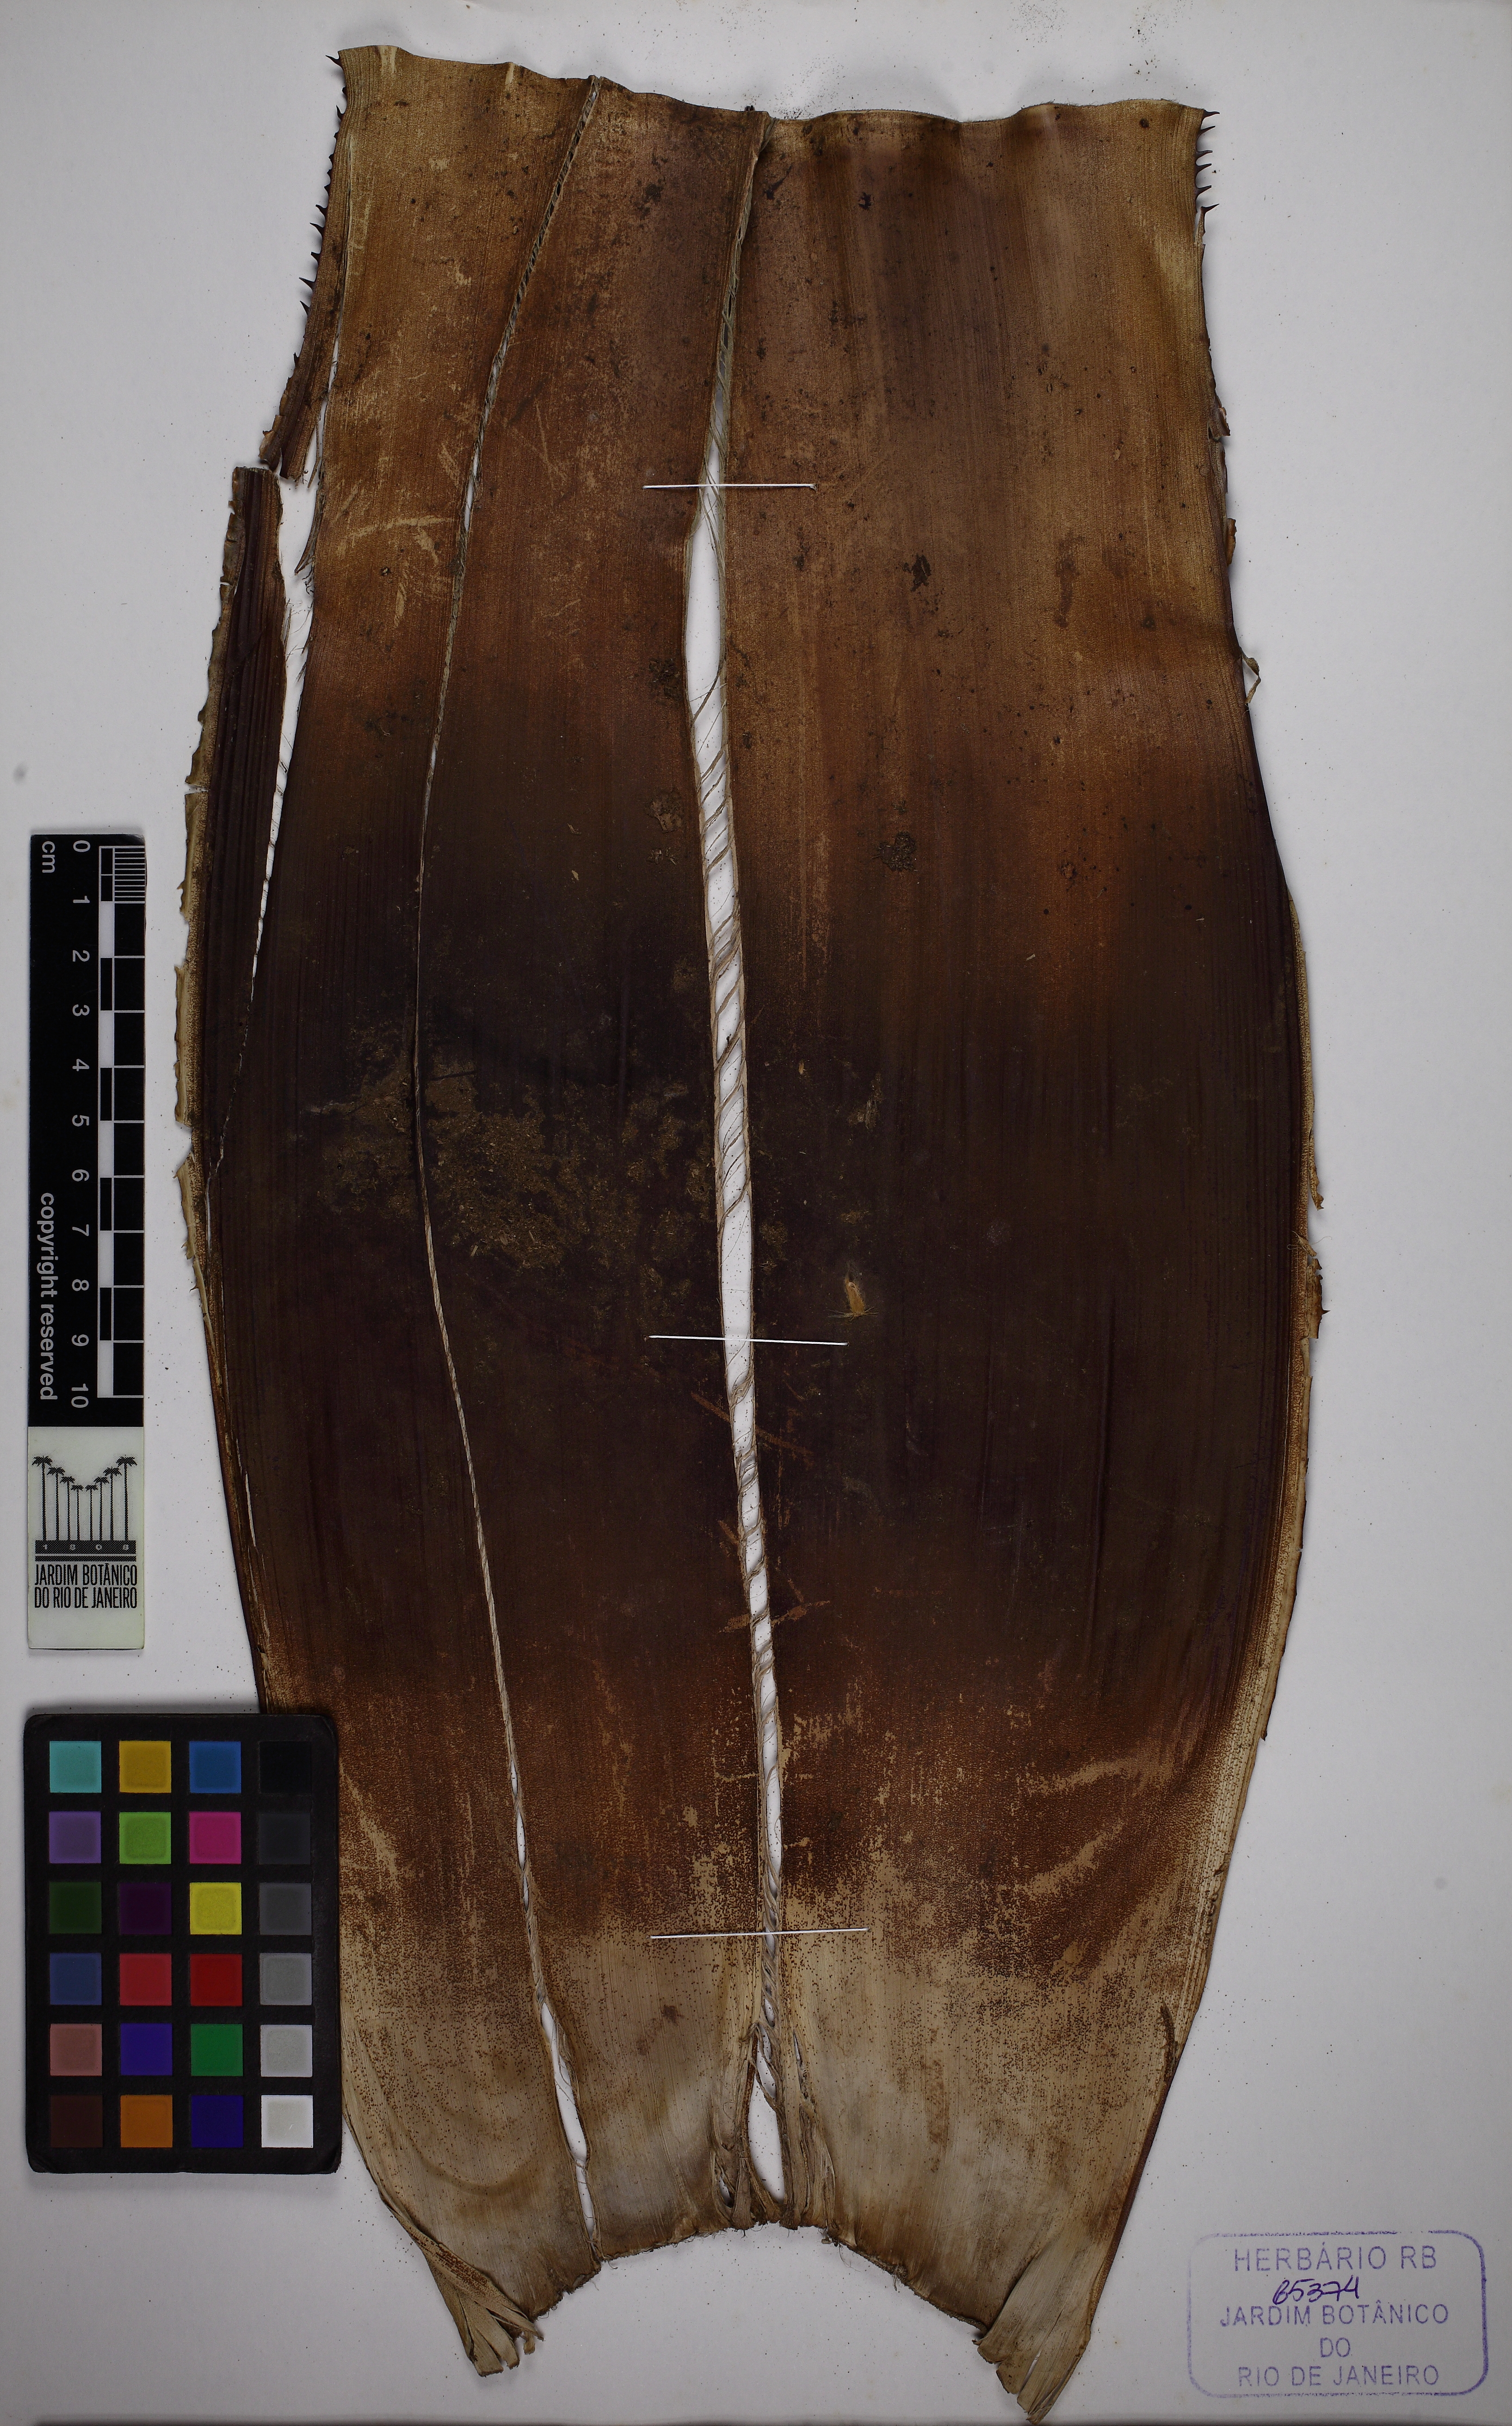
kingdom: Plantae
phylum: Tracheophyta
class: Liliopsida
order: Poales
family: Bromeliaceae
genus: Aechmea
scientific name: Aechmea floribunda
